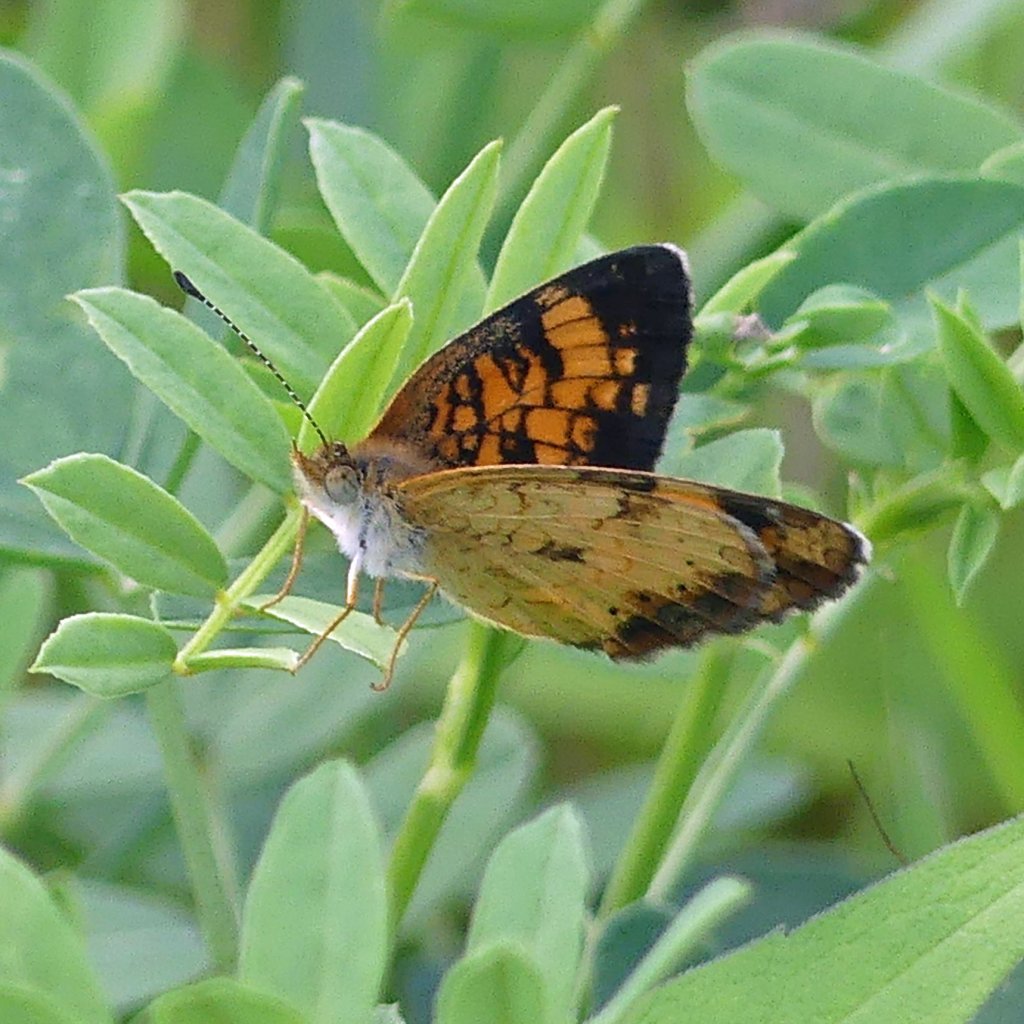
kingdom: Animalia
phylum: Arthropoda
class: Insecta
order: Lepidoptera
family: Nymphalidae
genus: Phyciodes
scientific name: Phyciodes tharos
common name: Pearl Crescent
